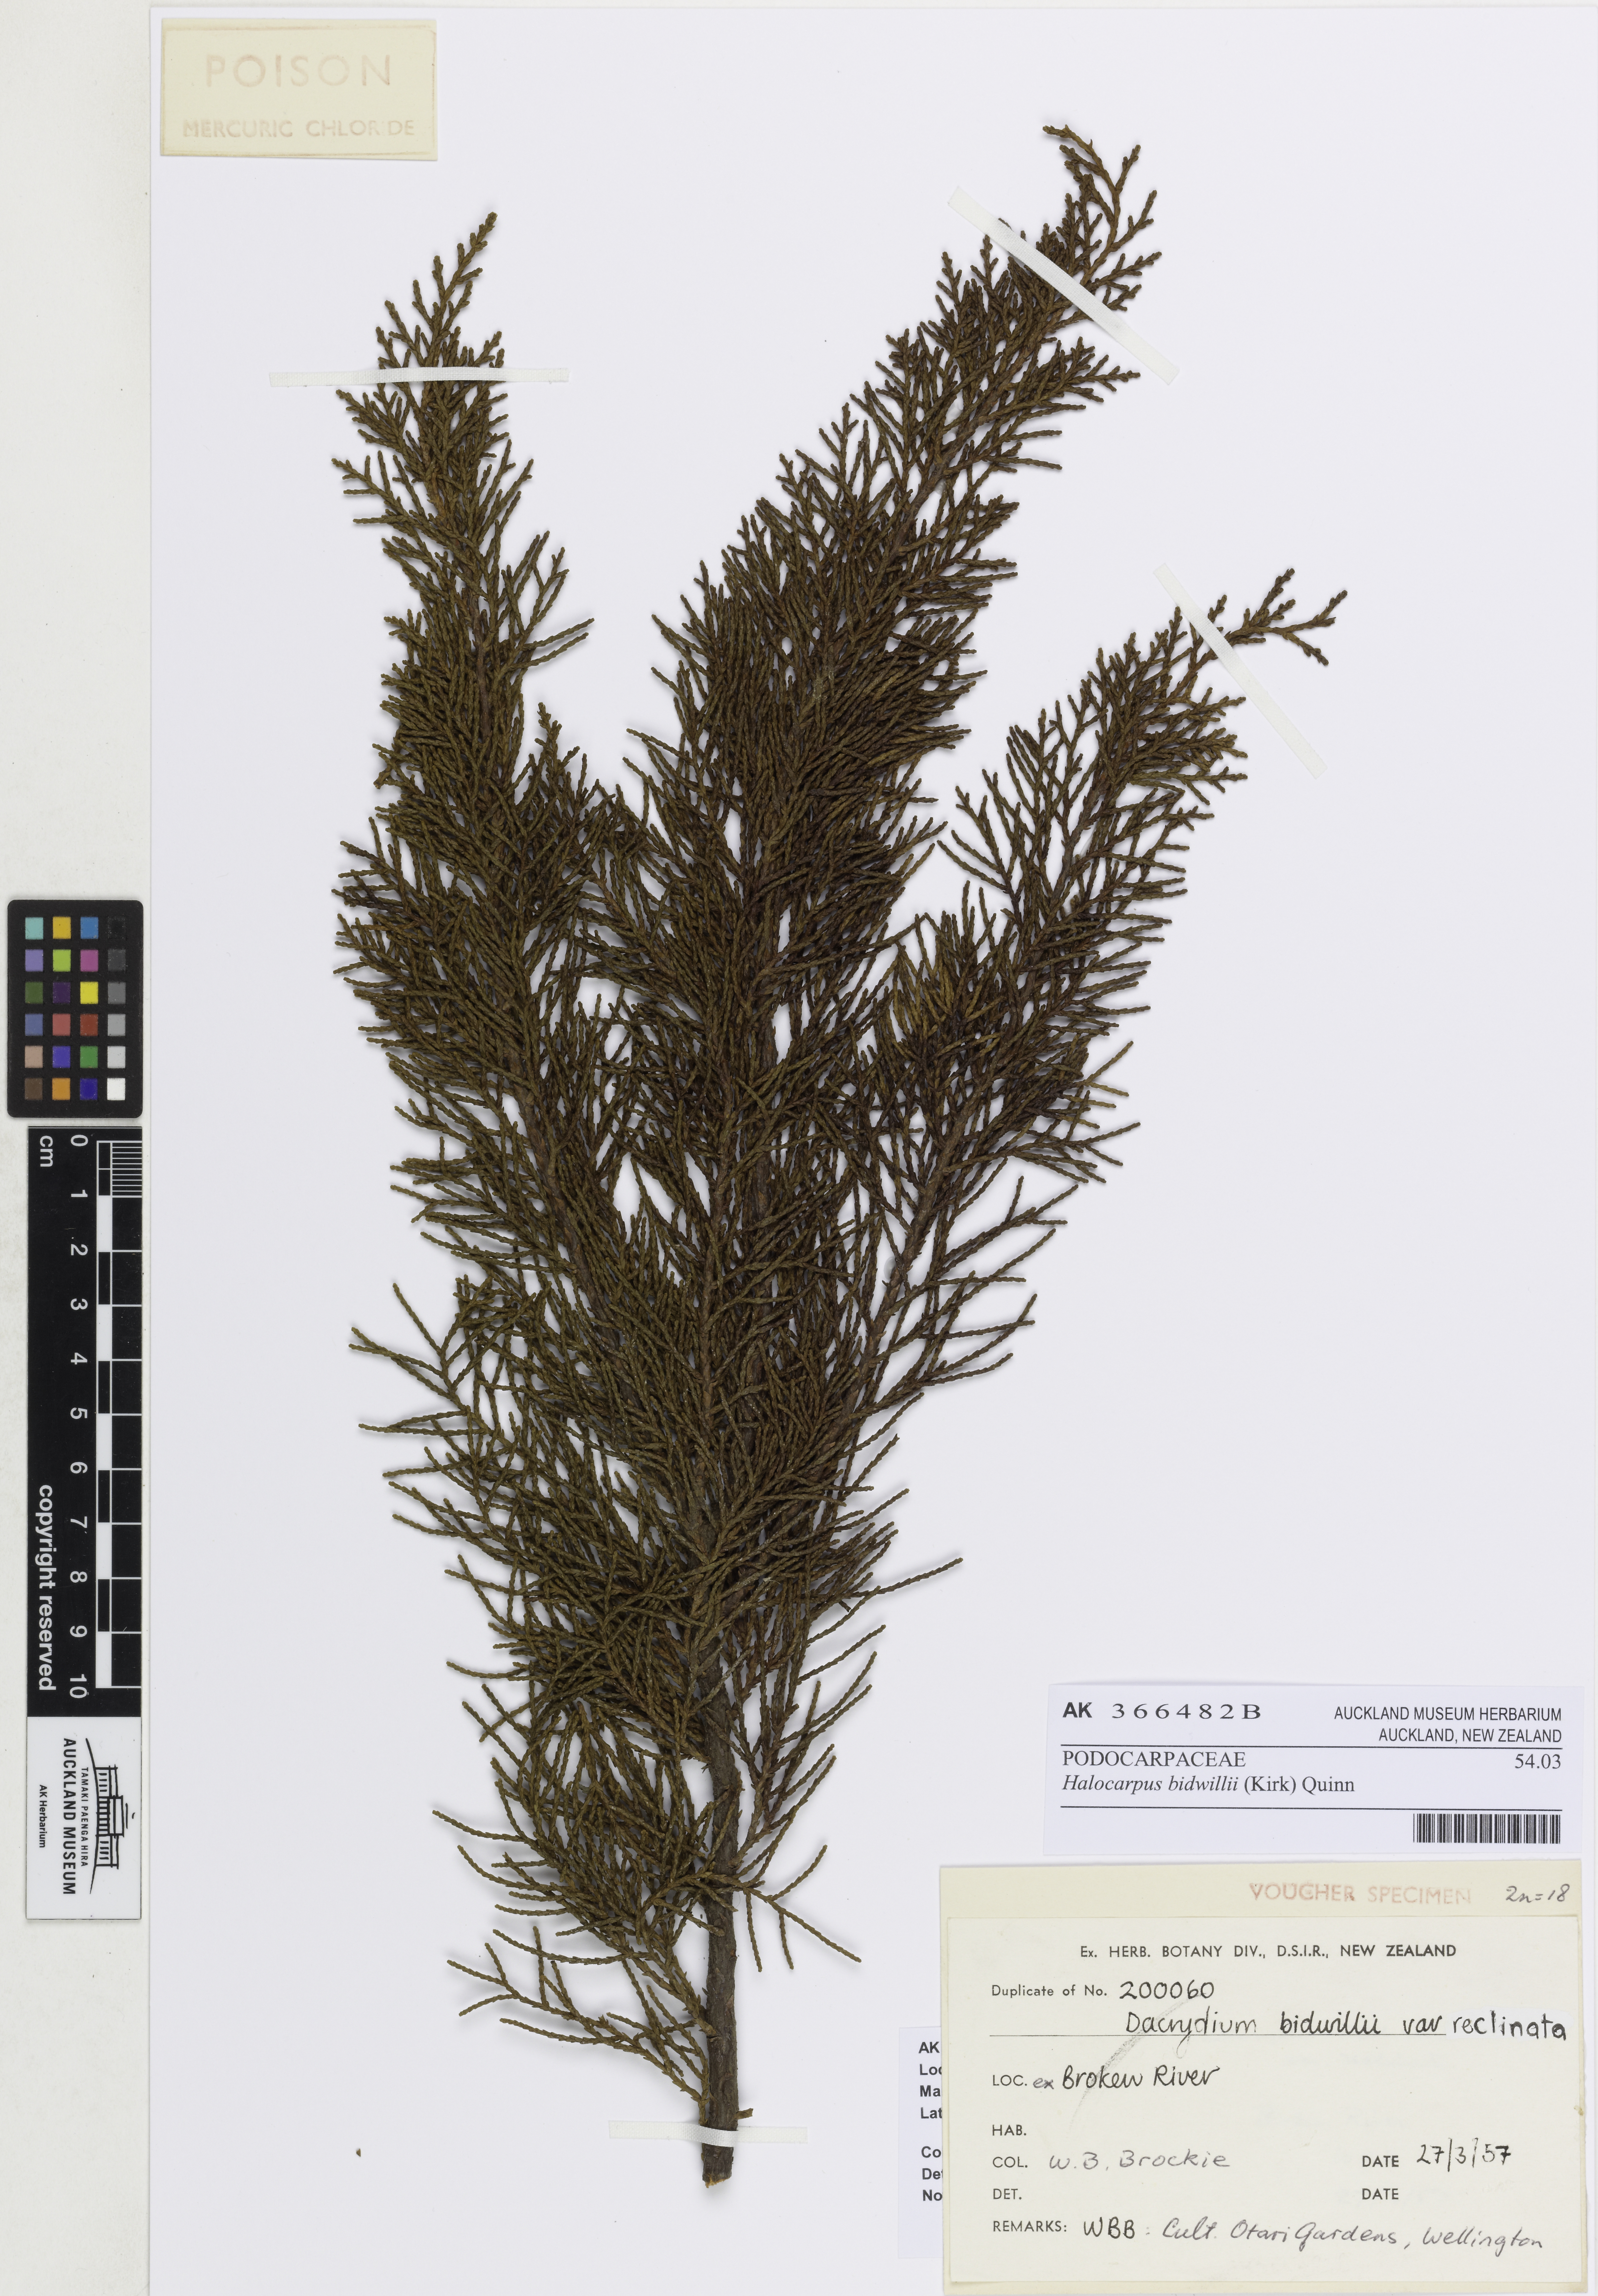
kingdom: Plantae
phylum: Tracheophyta
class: Pinopsida
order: Pinales
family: Podocarpaceae
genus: Halocarpus
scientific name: Halocarpus bidwillii
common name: Bog pine
